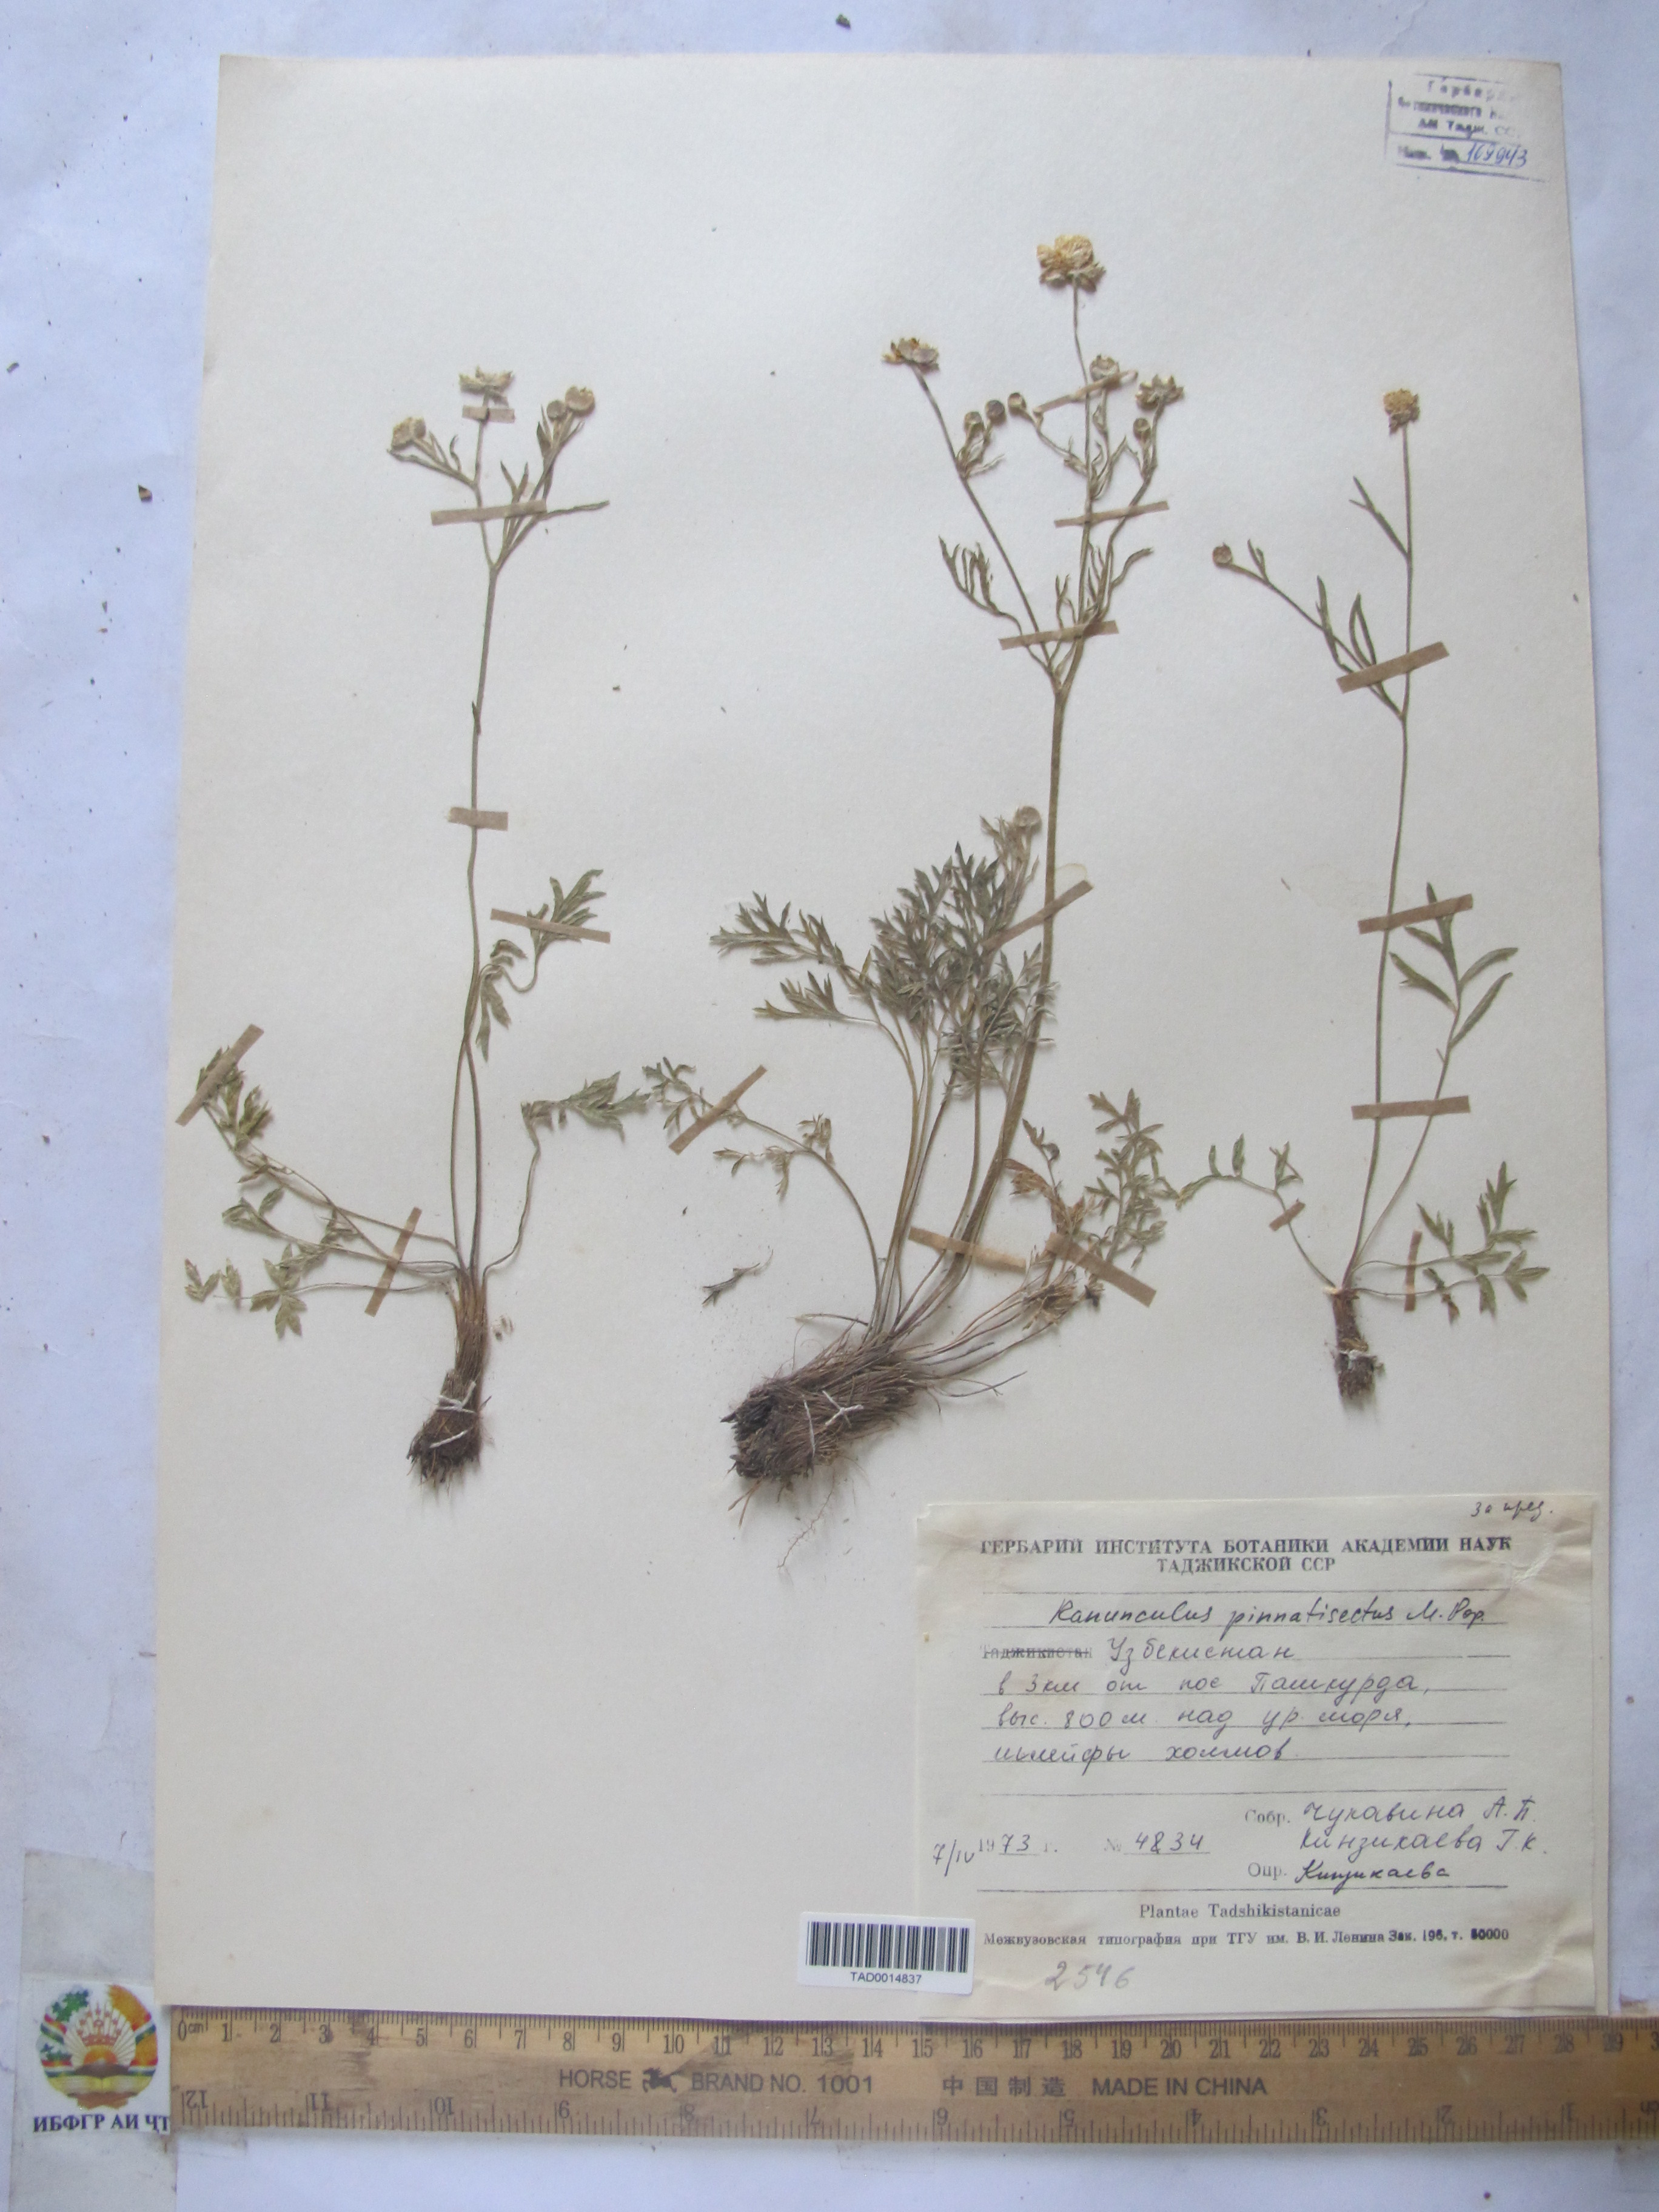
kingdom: Plantae
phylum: Tracheophyta
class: Magnoliopsida
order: Ranunculales
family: Ranunculaceae
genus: Ranunculus
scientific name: Ranunculus pinnatisectus
